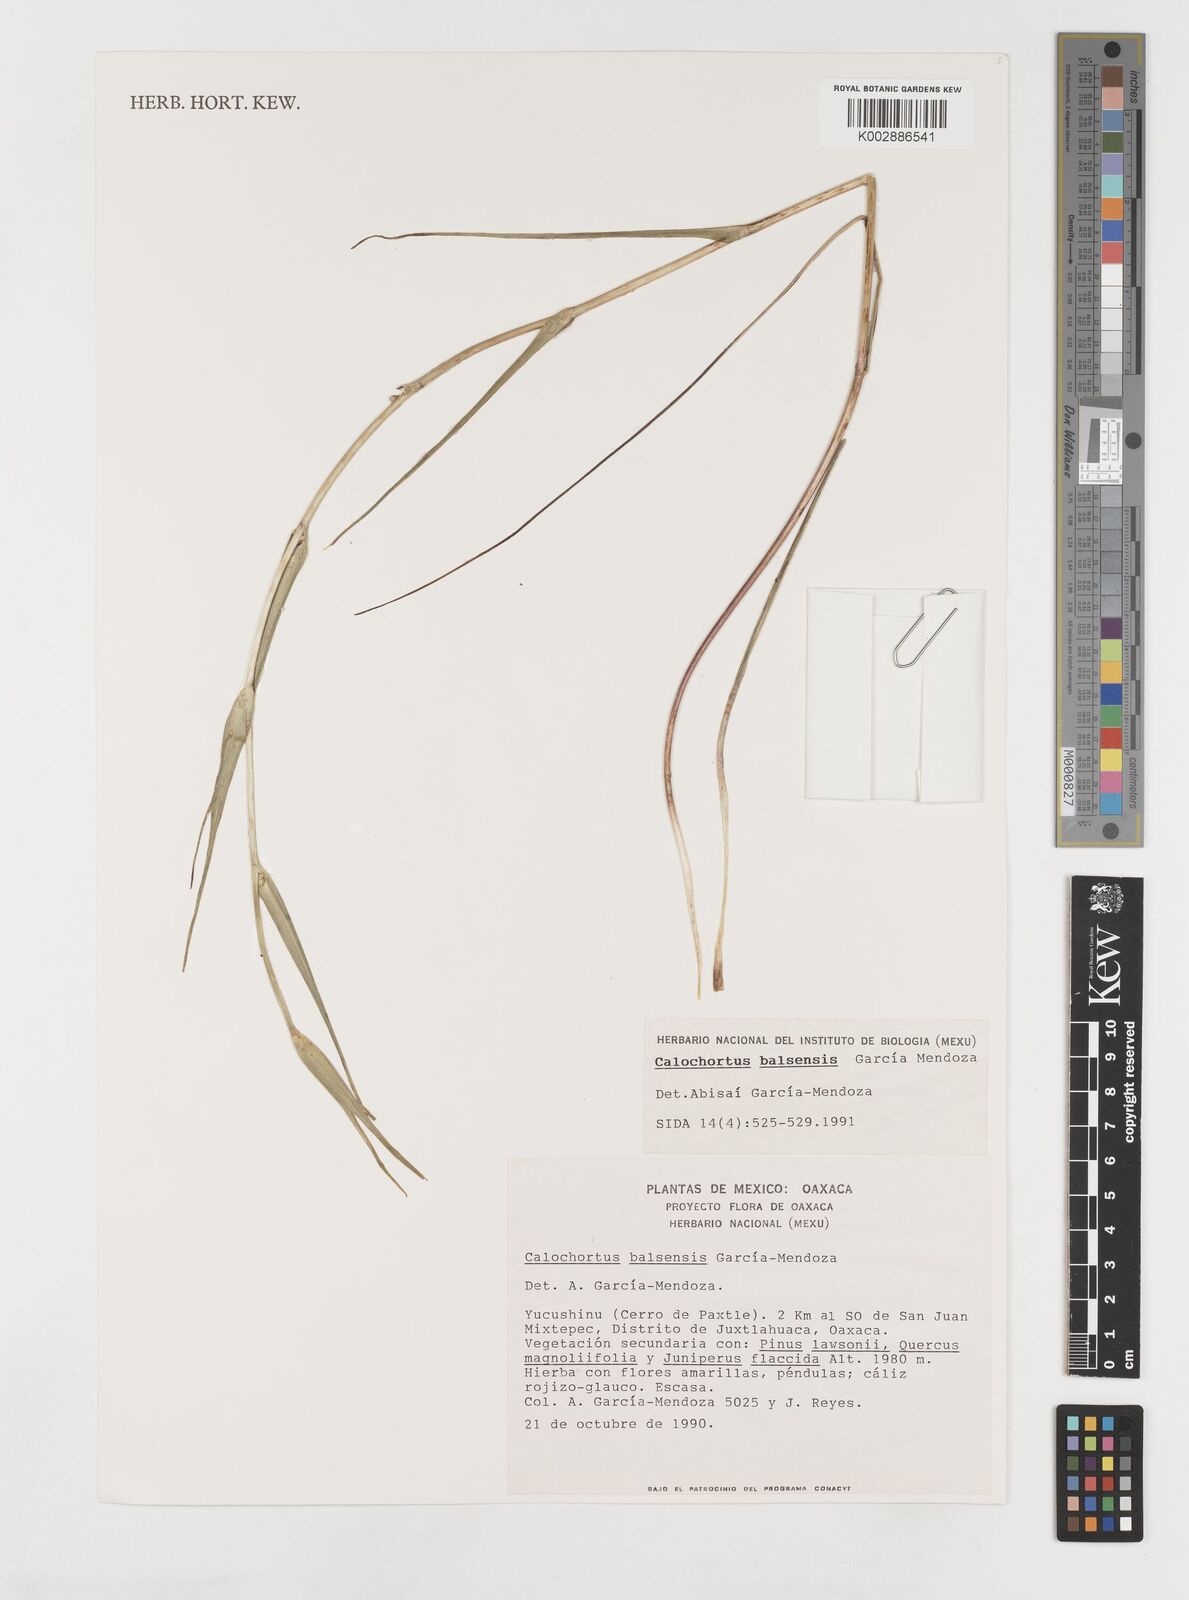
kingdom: Plantae
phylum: Tracheophyta
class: Liliopsida
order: Liliales
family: Liliaceae
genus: Calochortus
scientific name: Calochortus balsensis
